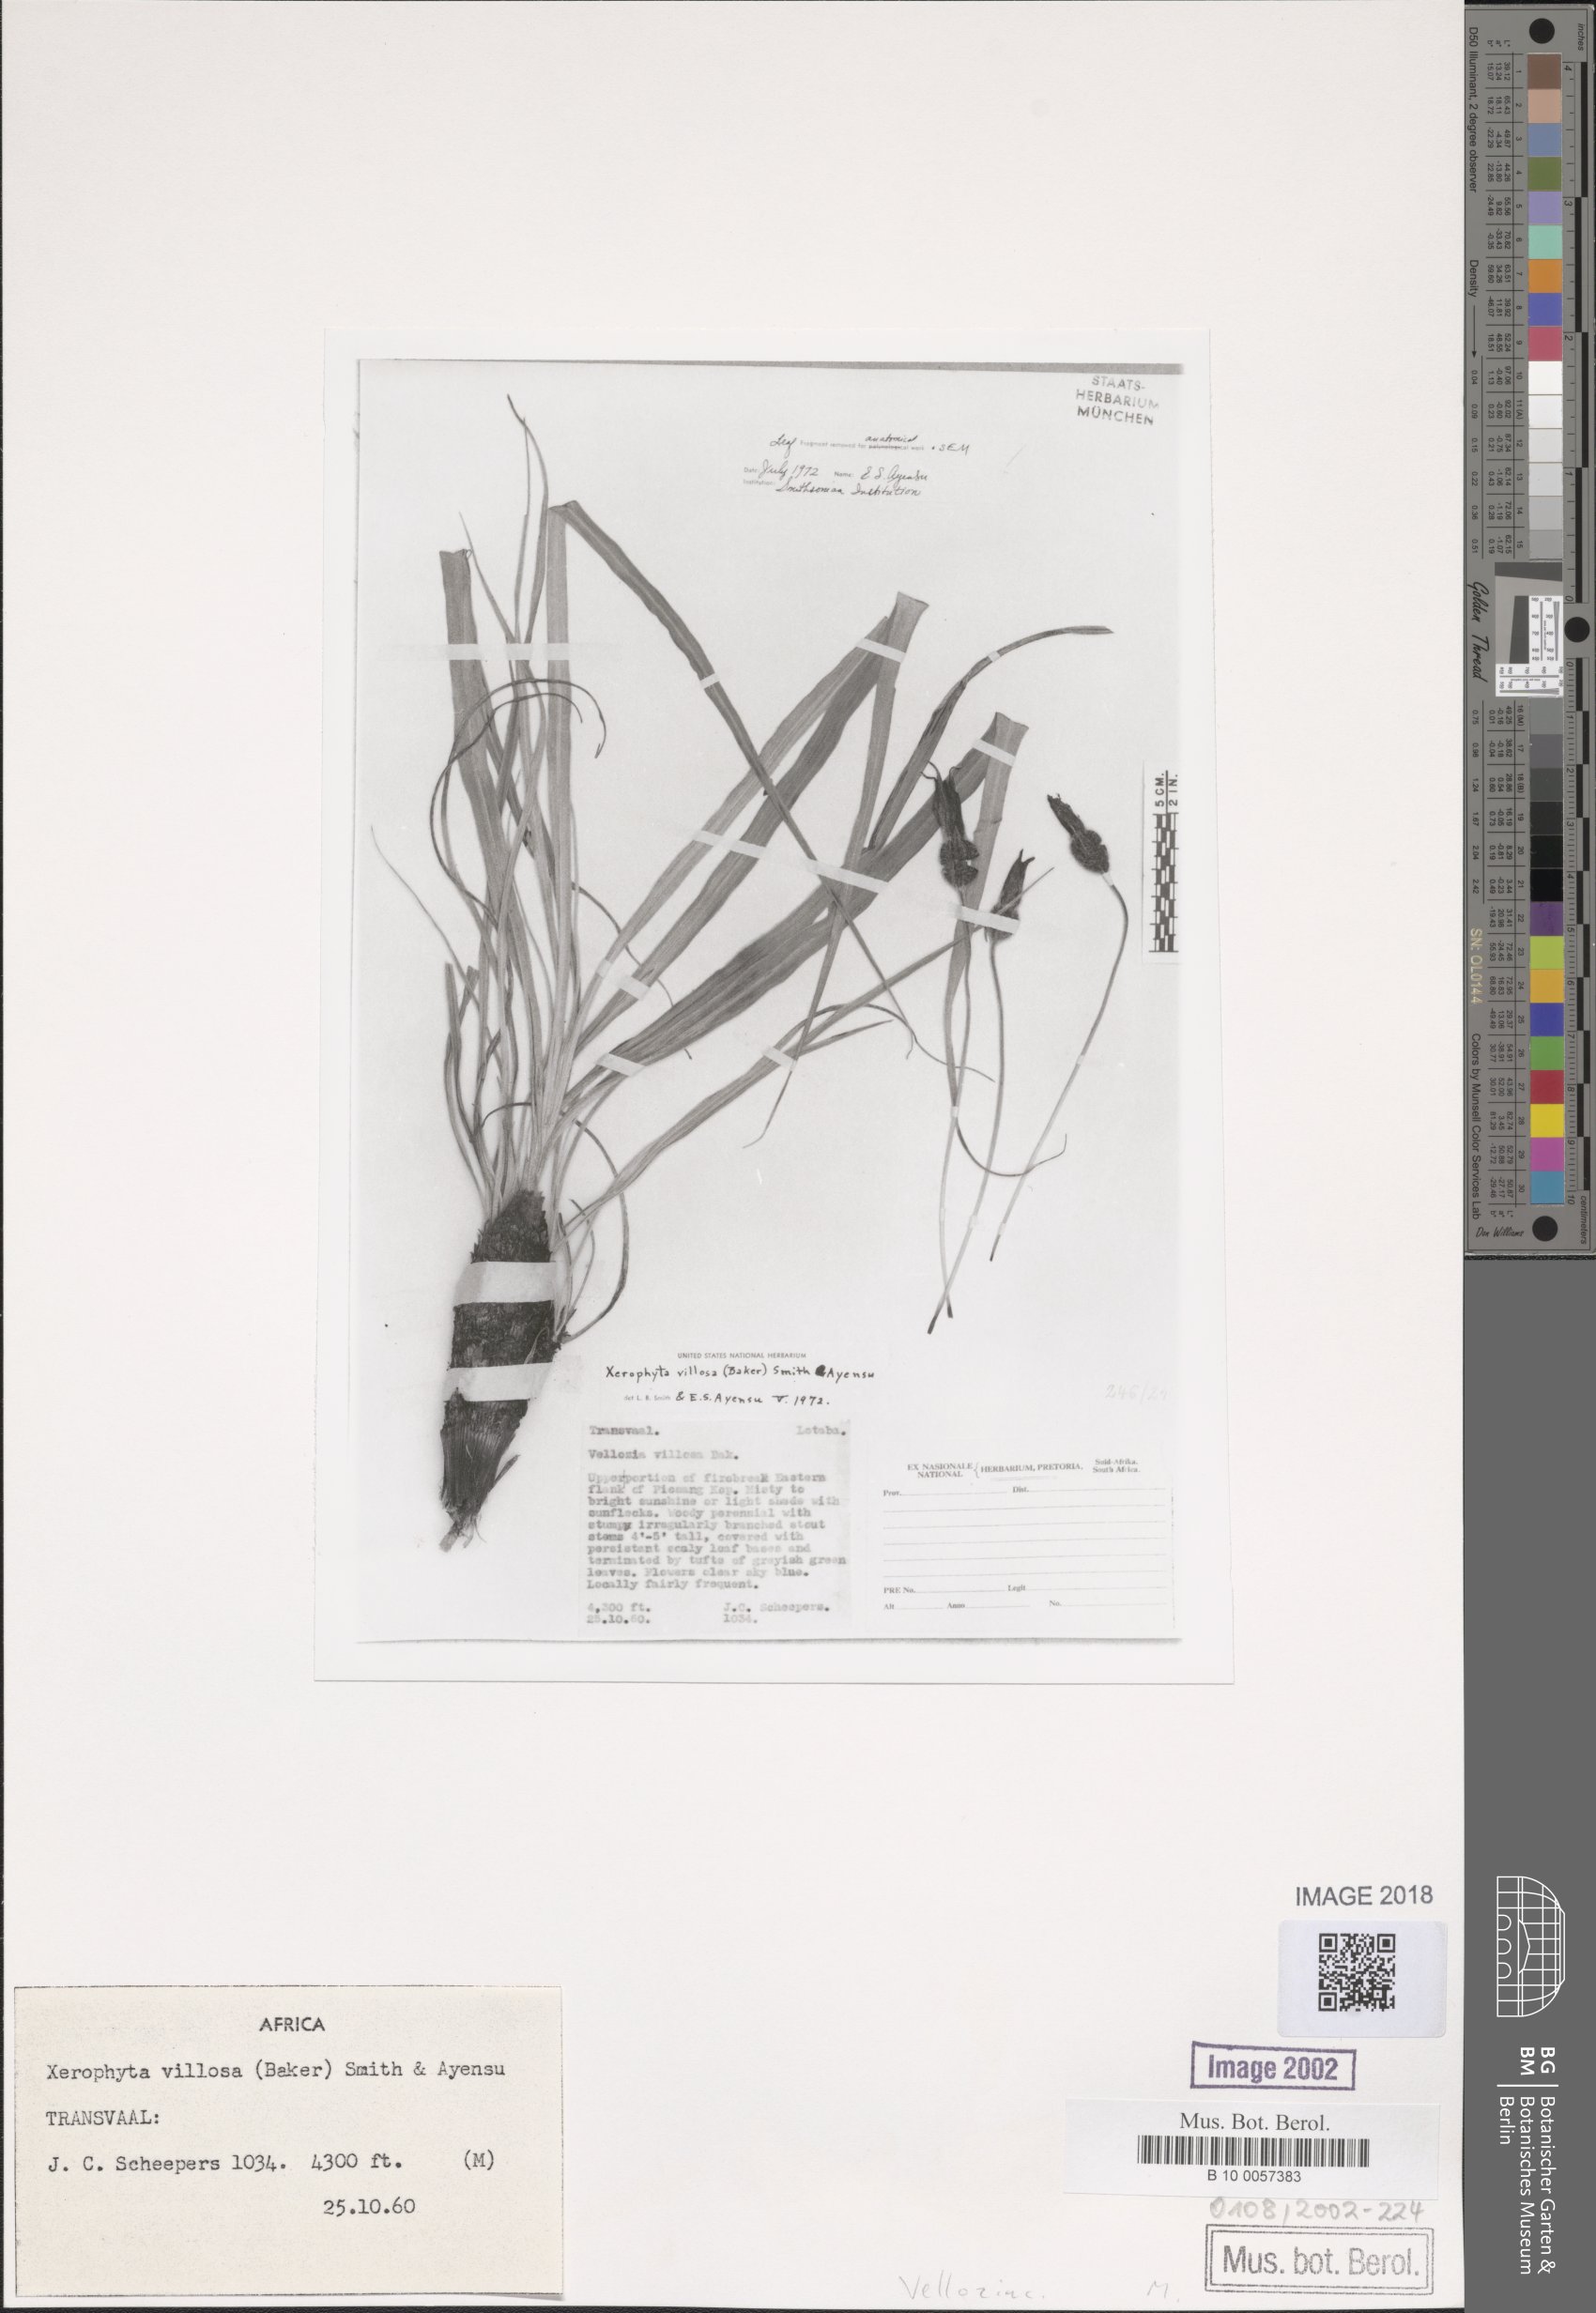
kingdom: Plantae
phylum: Tracheophyta
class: Liliopsida
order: Pandanales
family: Velloziaceae
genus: Xerophyta
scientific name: Xerophyta villosa
